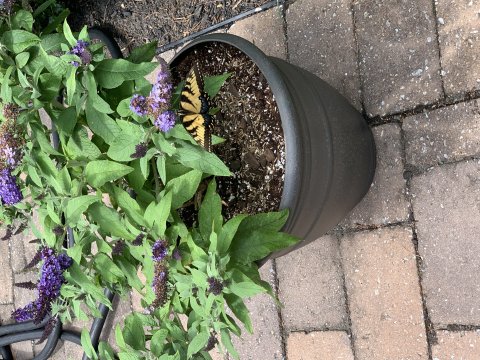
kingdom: Animalia
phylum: Arthropoda
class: Insecta
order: Lepidoptera
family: Papilionidae
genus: Pterourus
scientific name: Pterourus glaucus
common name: Eastern Tiger Swallowtail
